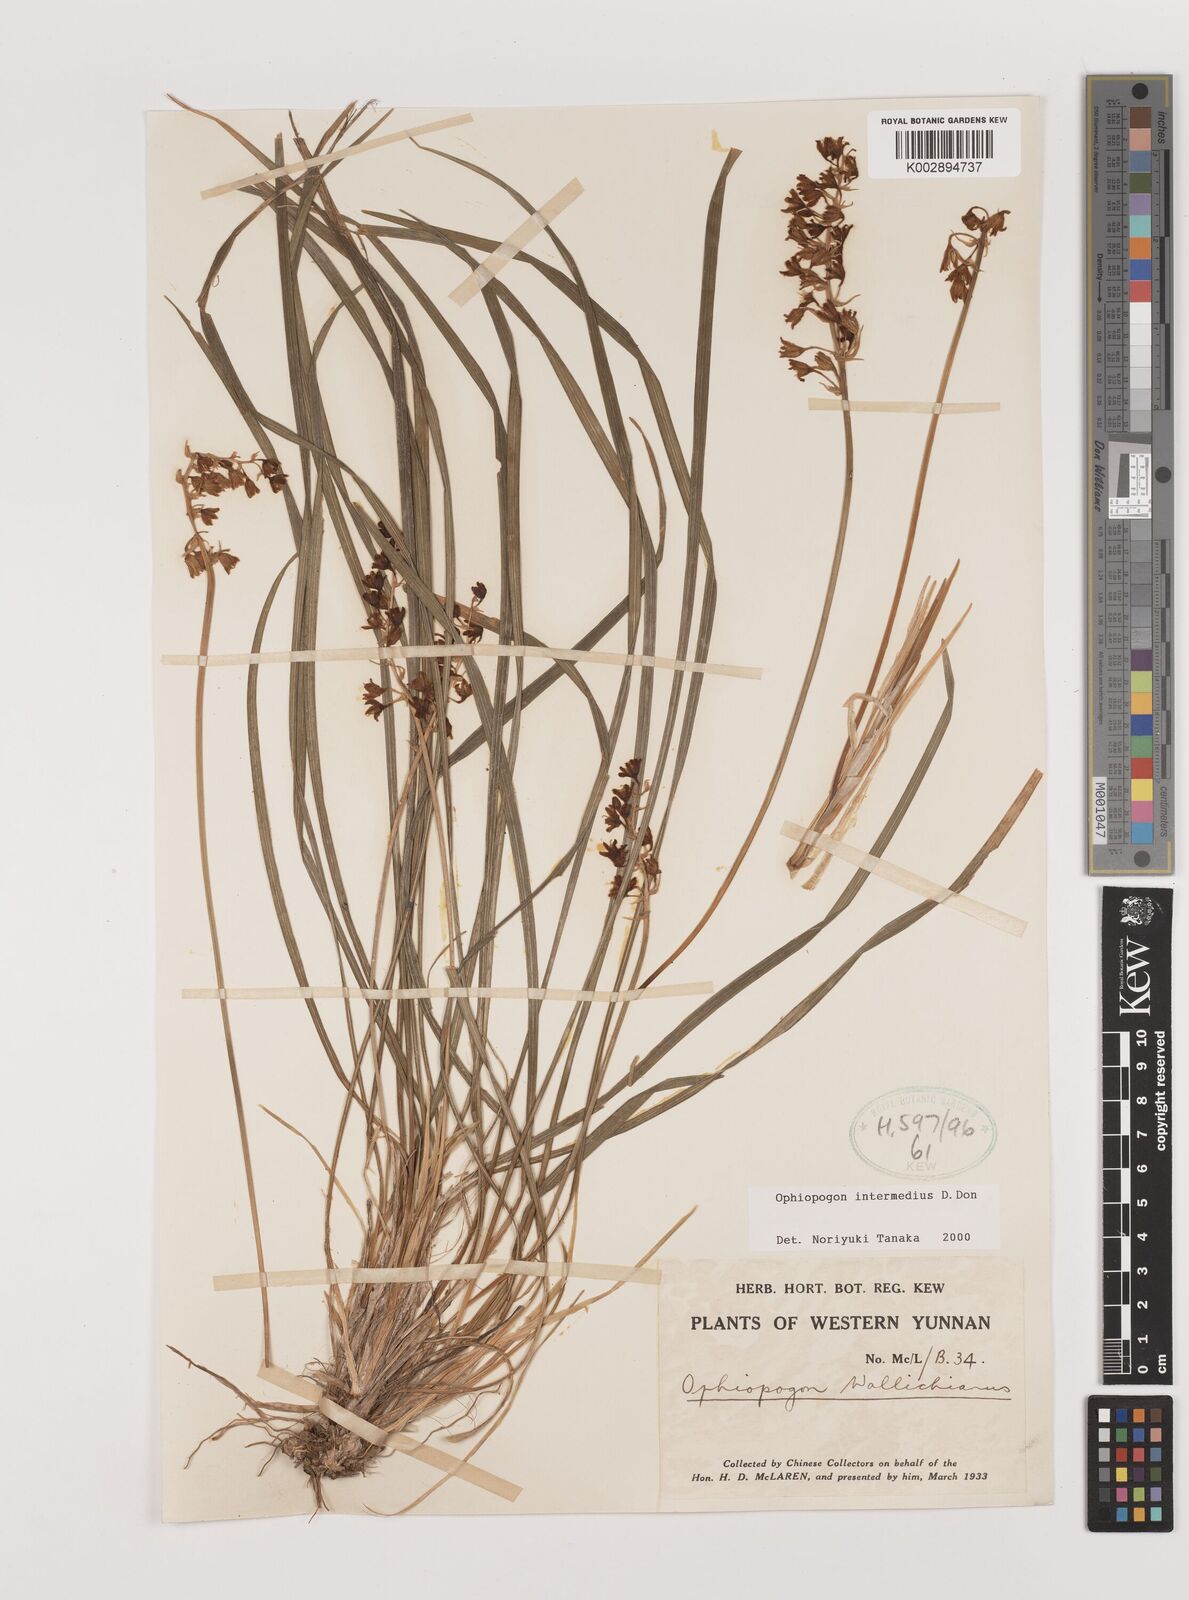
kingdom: Plantae
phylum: Tracheophyta
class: Liliopsida
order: Asparagales
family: Asparagaceae
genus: Ophiopogon
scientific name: Ophiopogon intermedius
